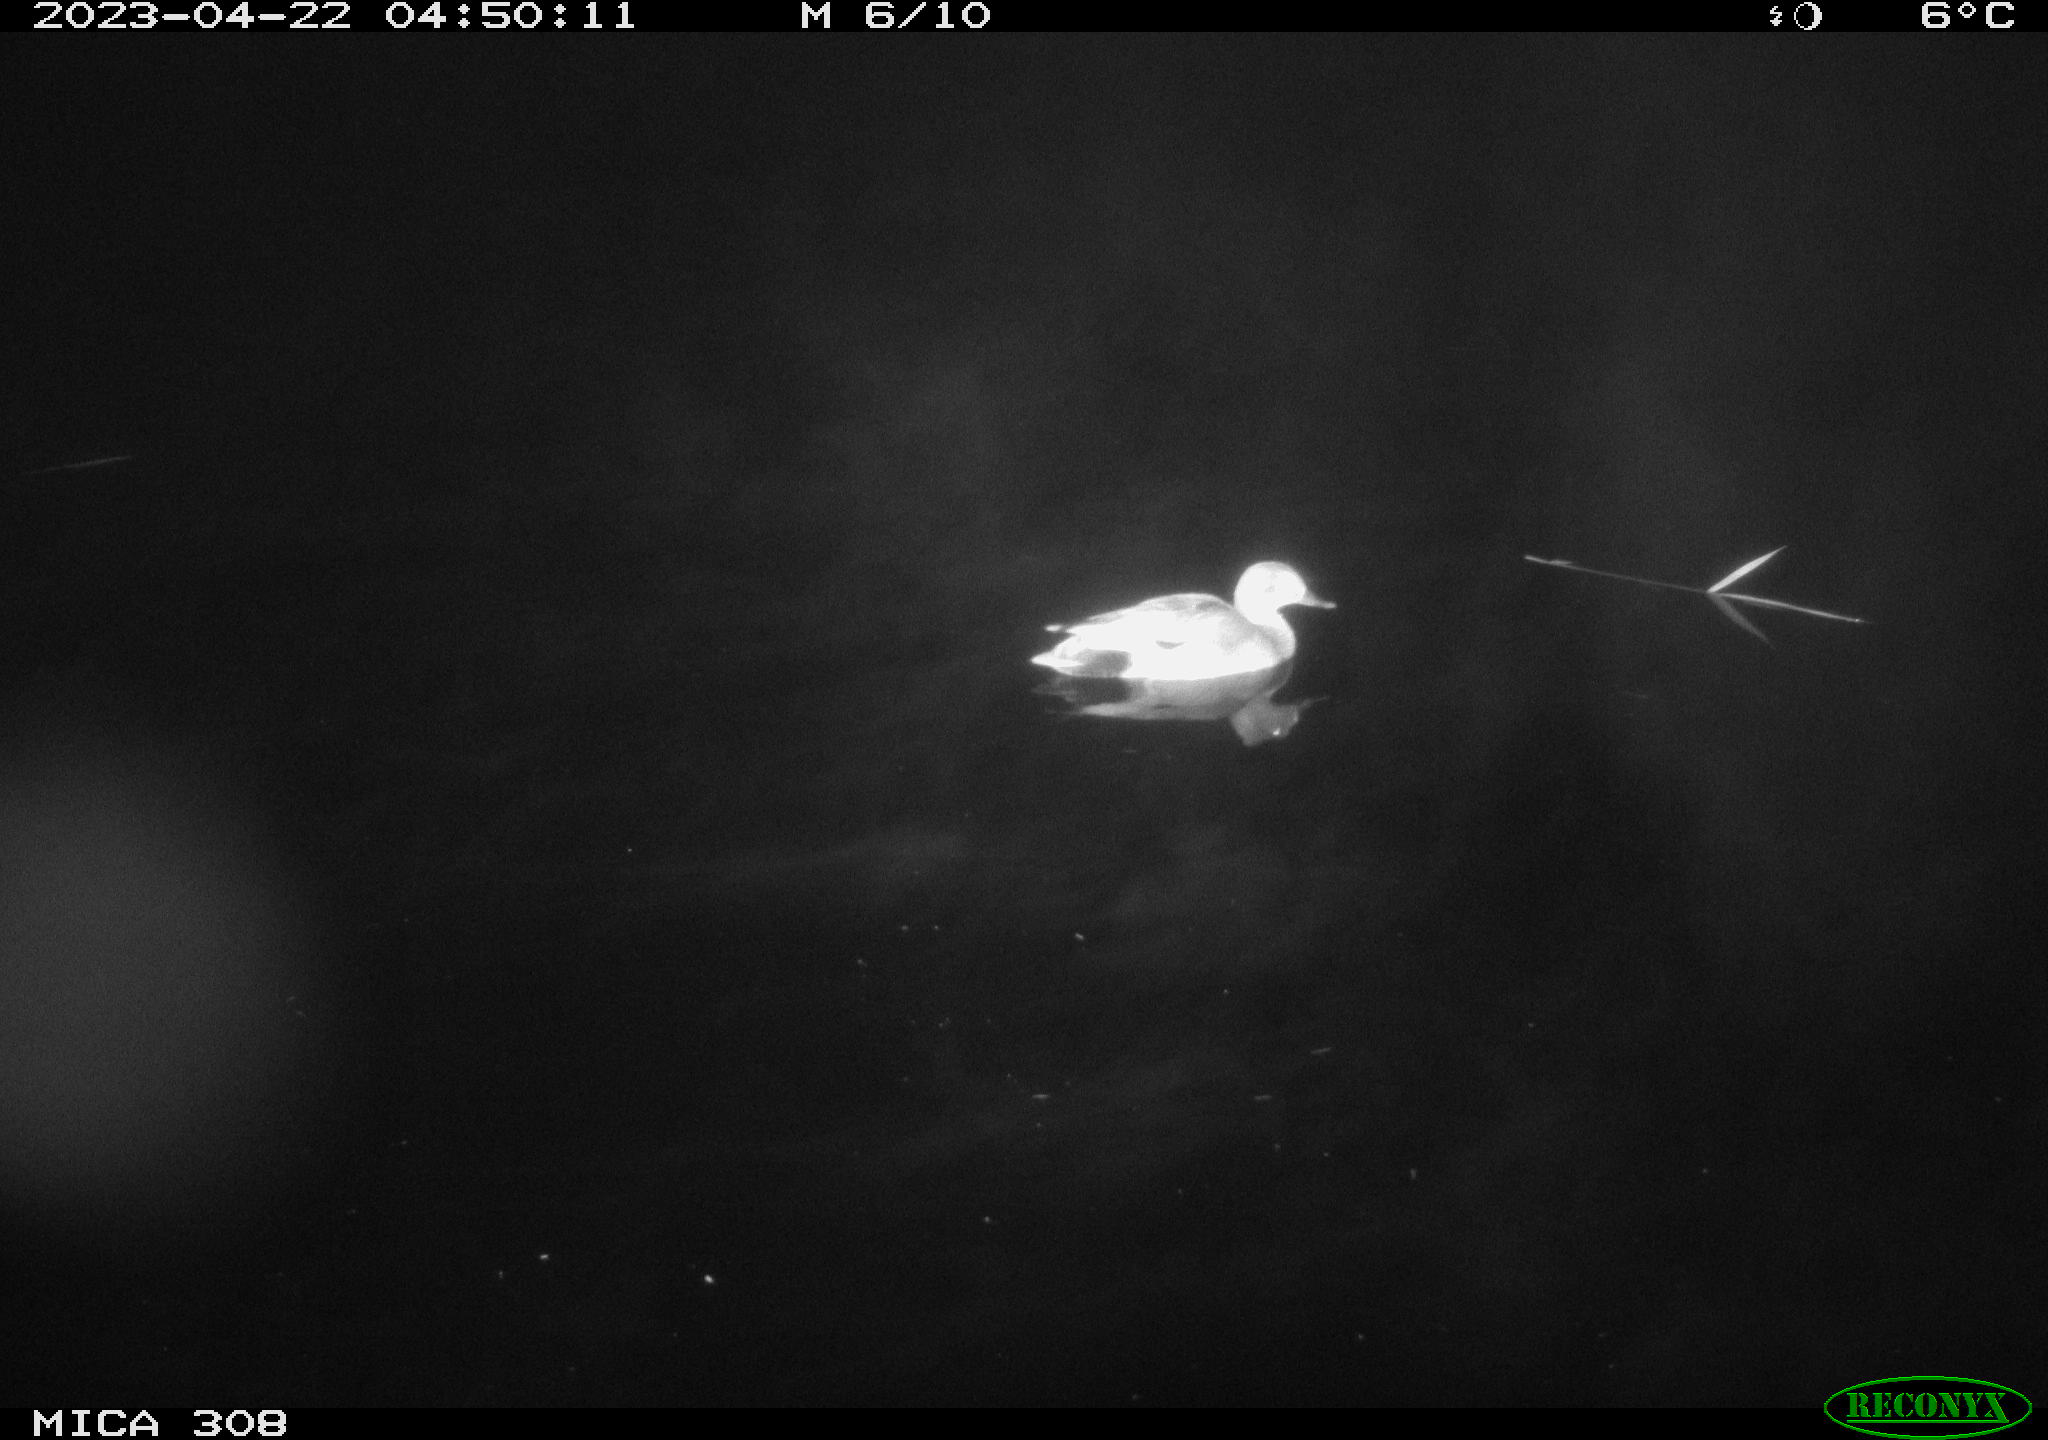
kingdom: Animalia
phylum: Chordata
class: Aves
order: Anseriformes
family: Anatidae
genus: Anas
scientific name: Anas
